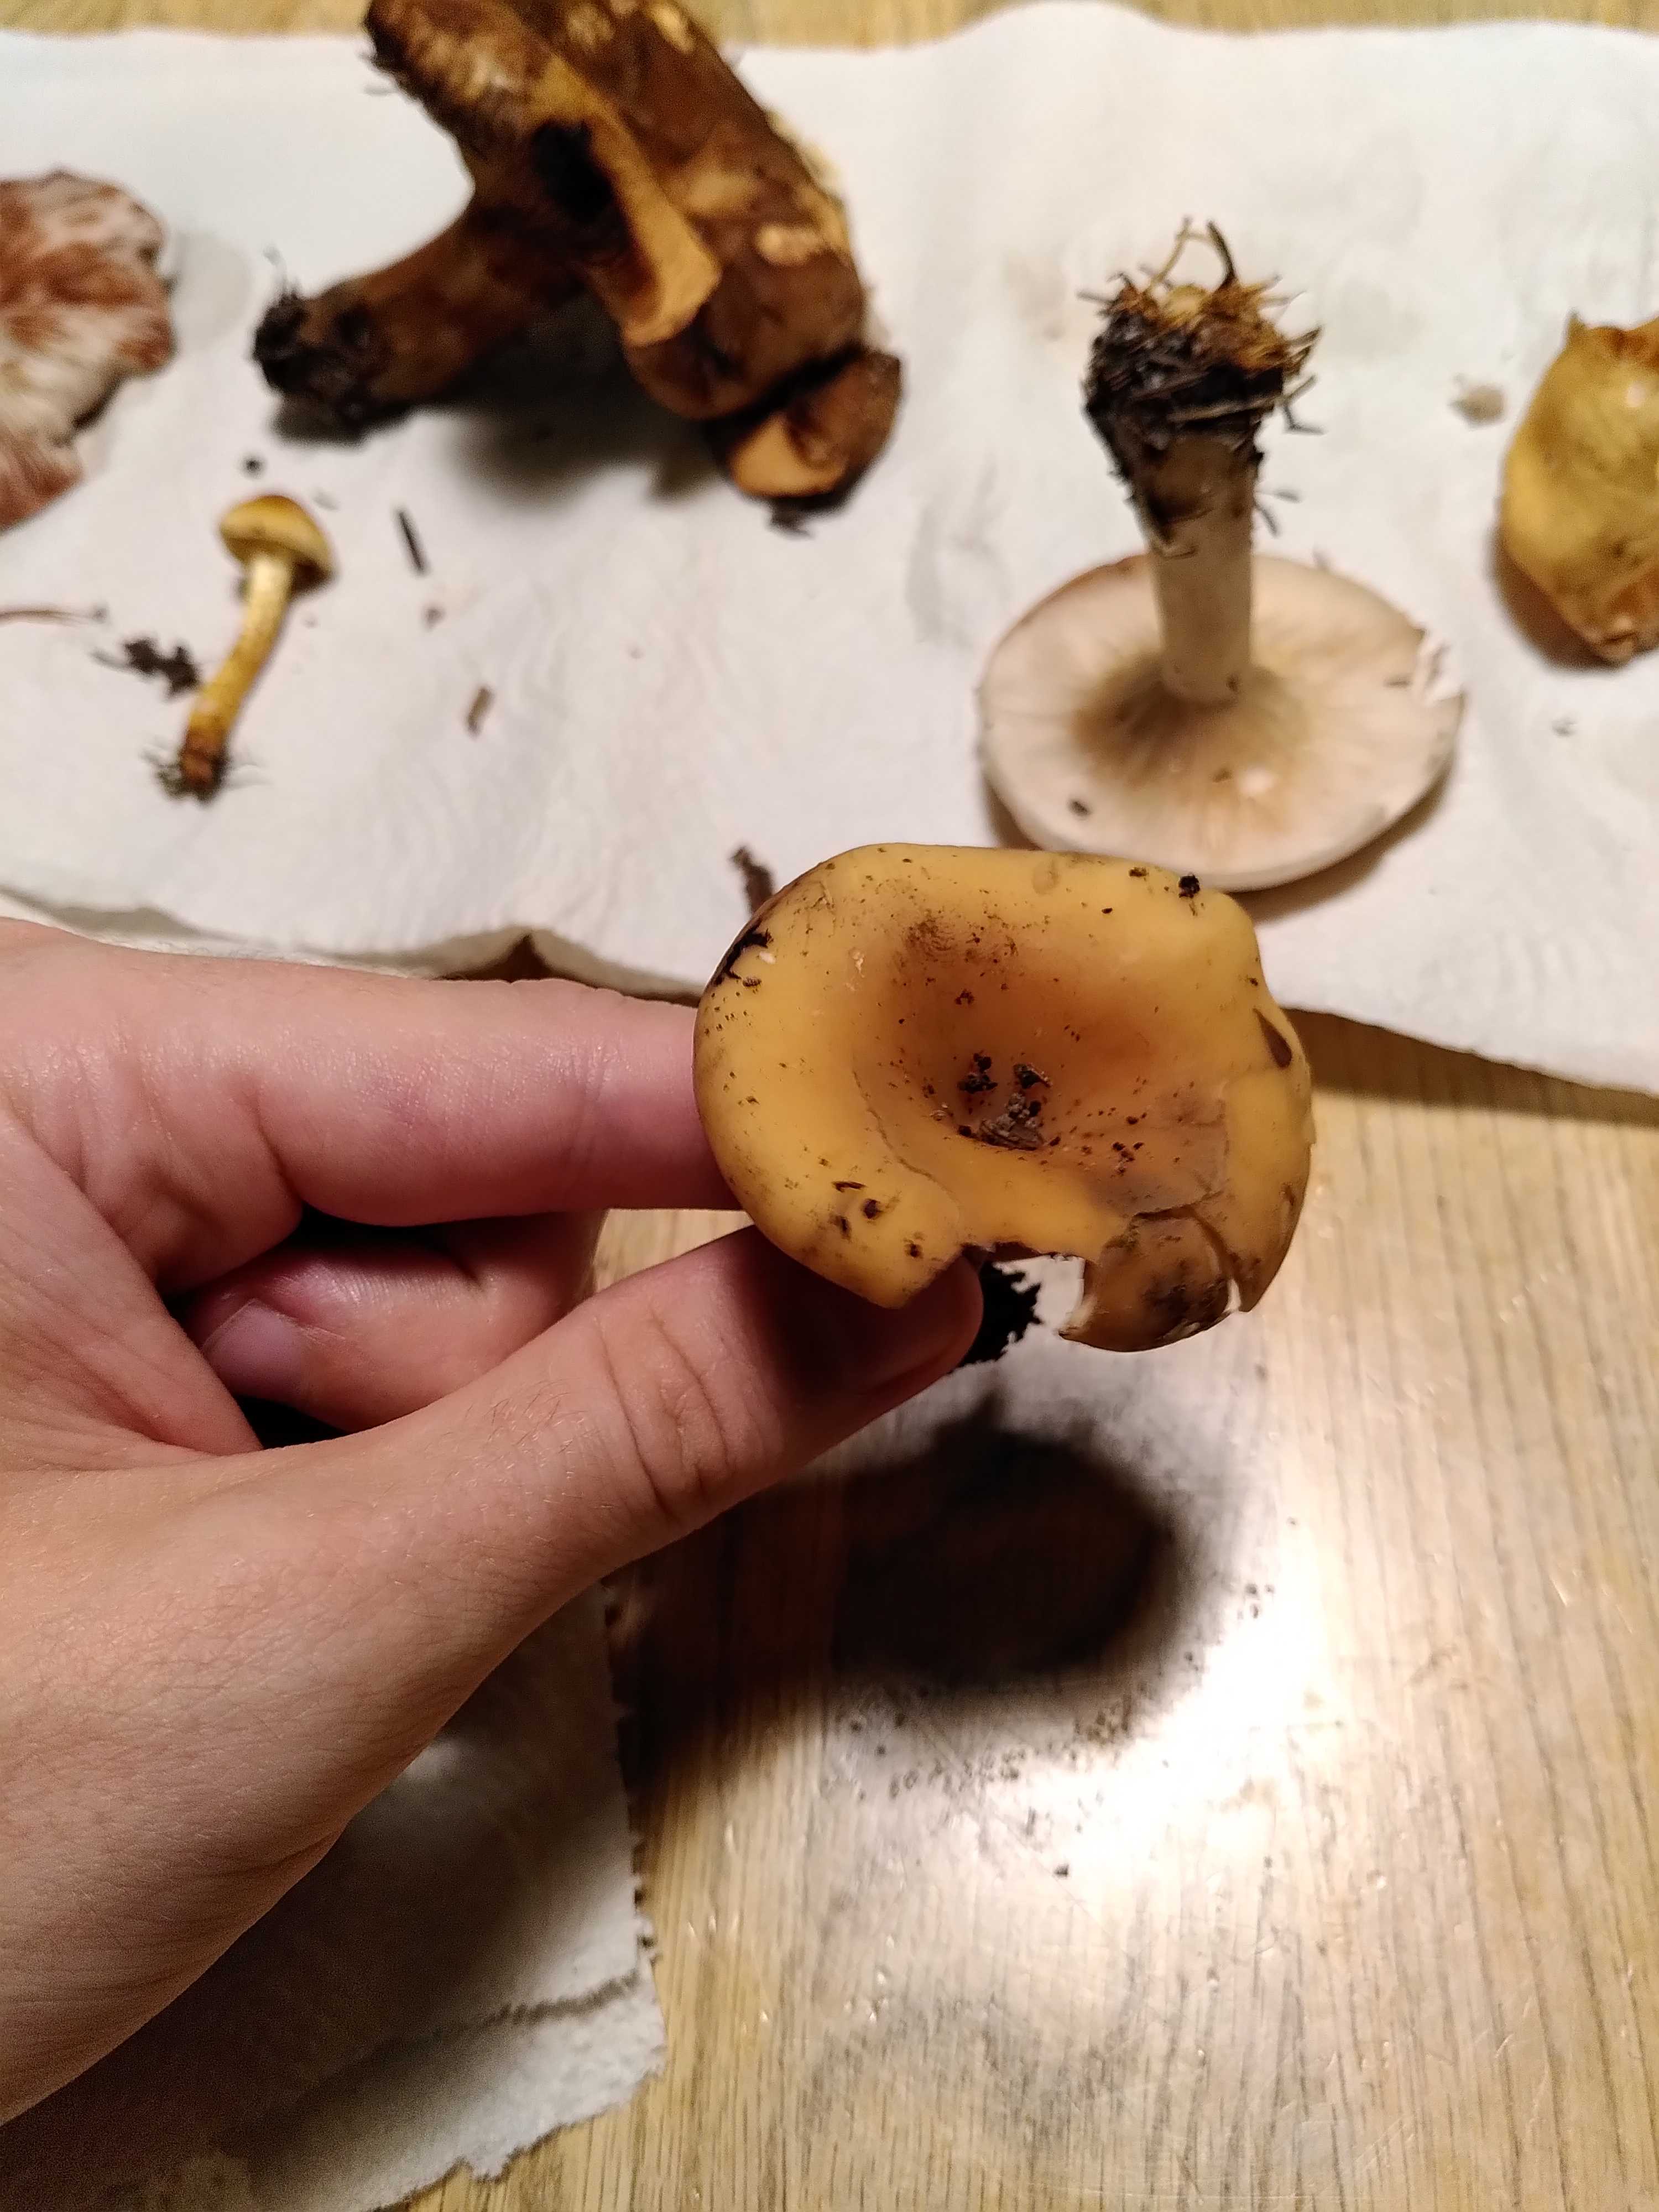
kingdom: Fungi
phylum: Basidiomycota
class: Agaricomycetes
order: Agaricales
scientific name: Agaricales
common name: champignonordenen
